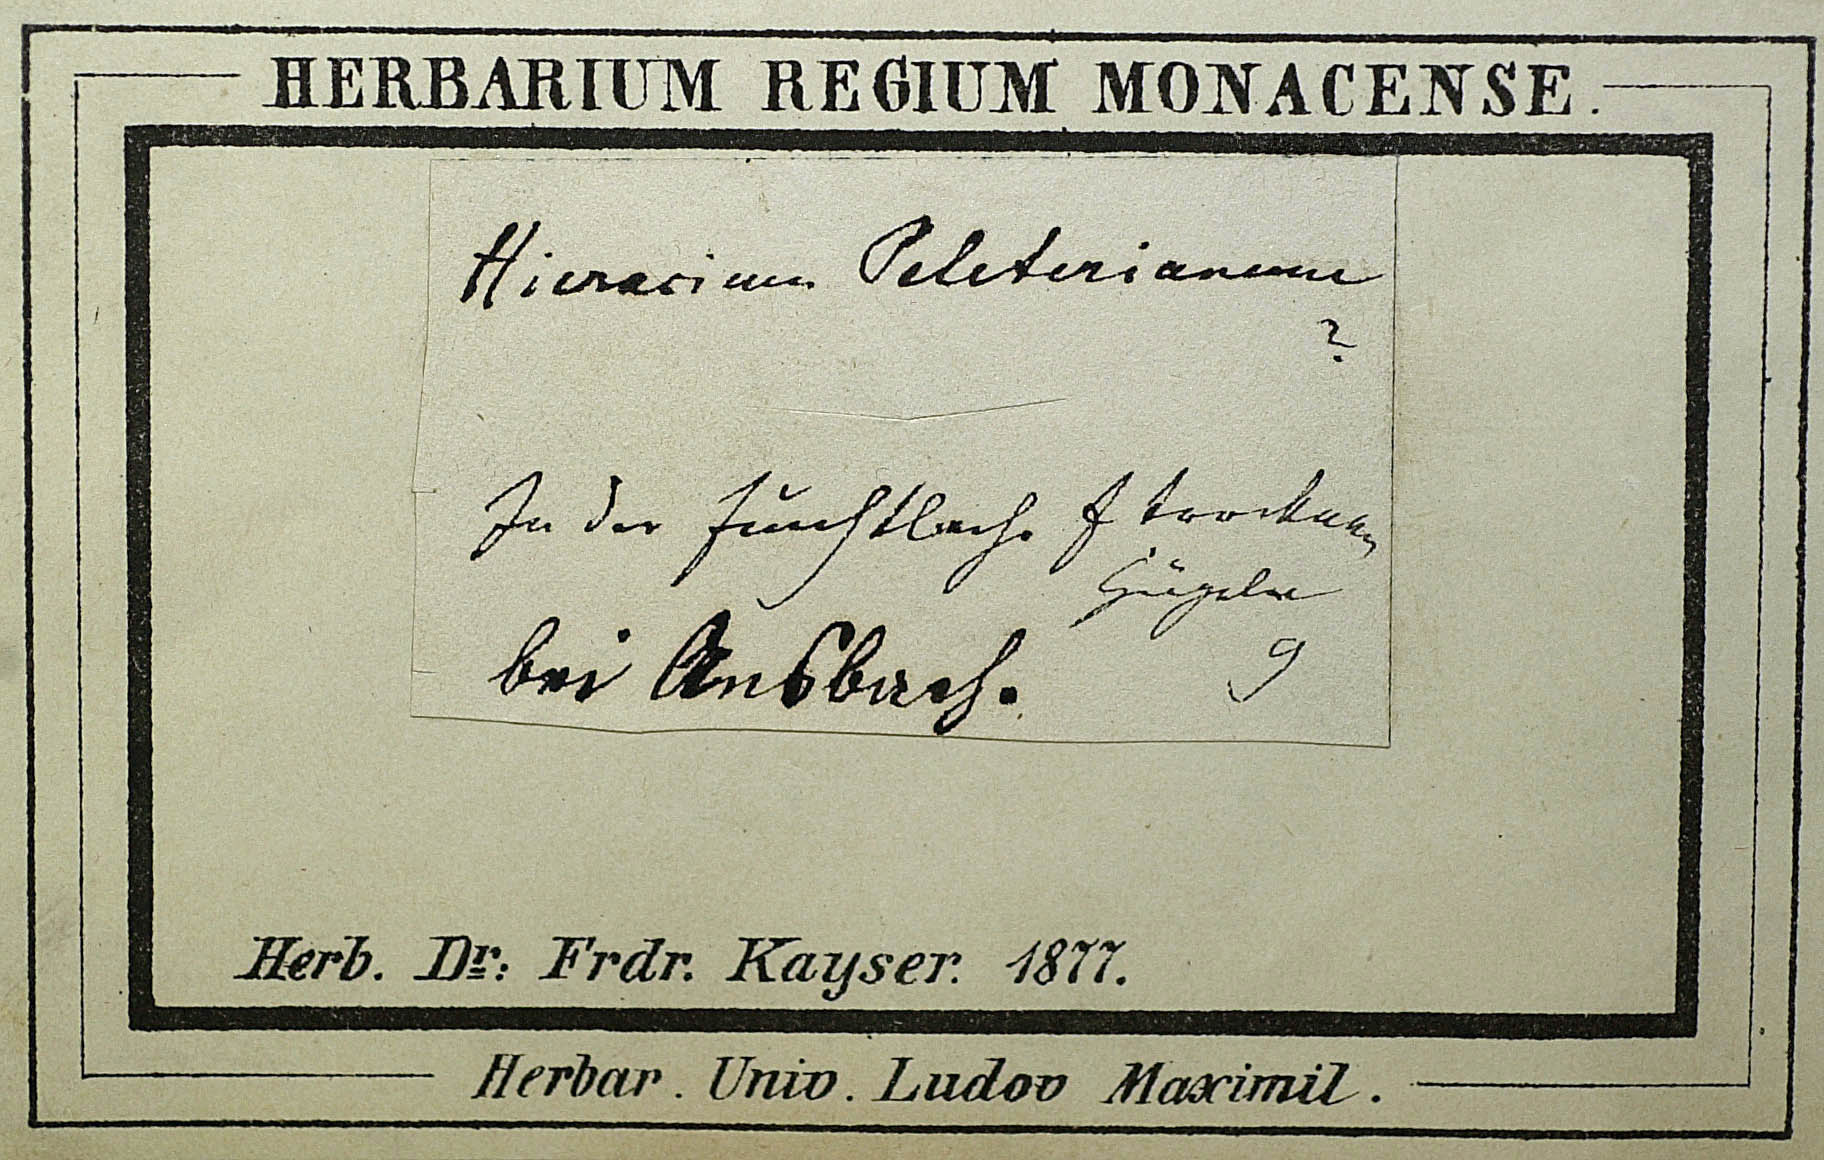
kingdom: Plantae
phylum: Tracheophyta
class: Magnoliopsida
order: Asterales
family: Asteraceae
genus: Pilosella
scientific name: Pilosella officinarum
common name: Mouse-ear hawkweed
